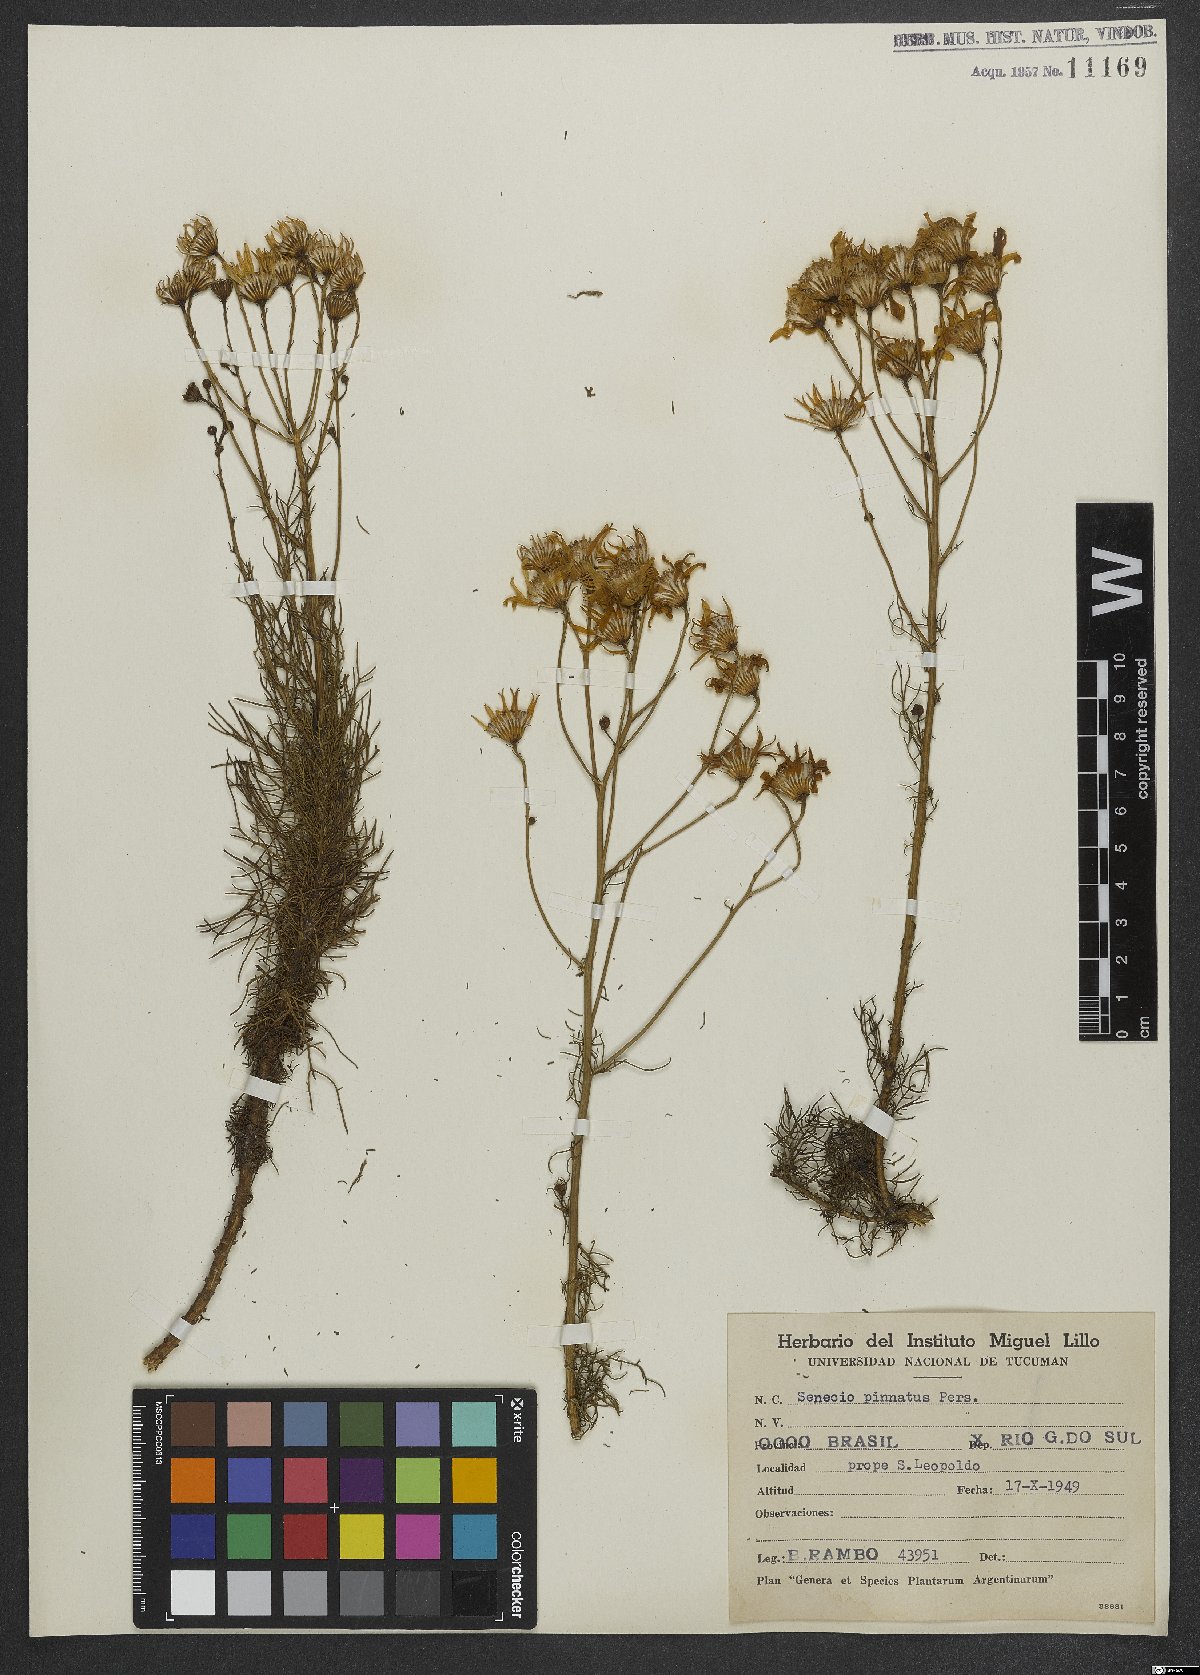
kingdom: Plantae
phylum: Tracheophyta
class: Magnoliopsida
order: Asterales
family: Asteraceae
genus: Senecio
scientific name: Senecio platensis
